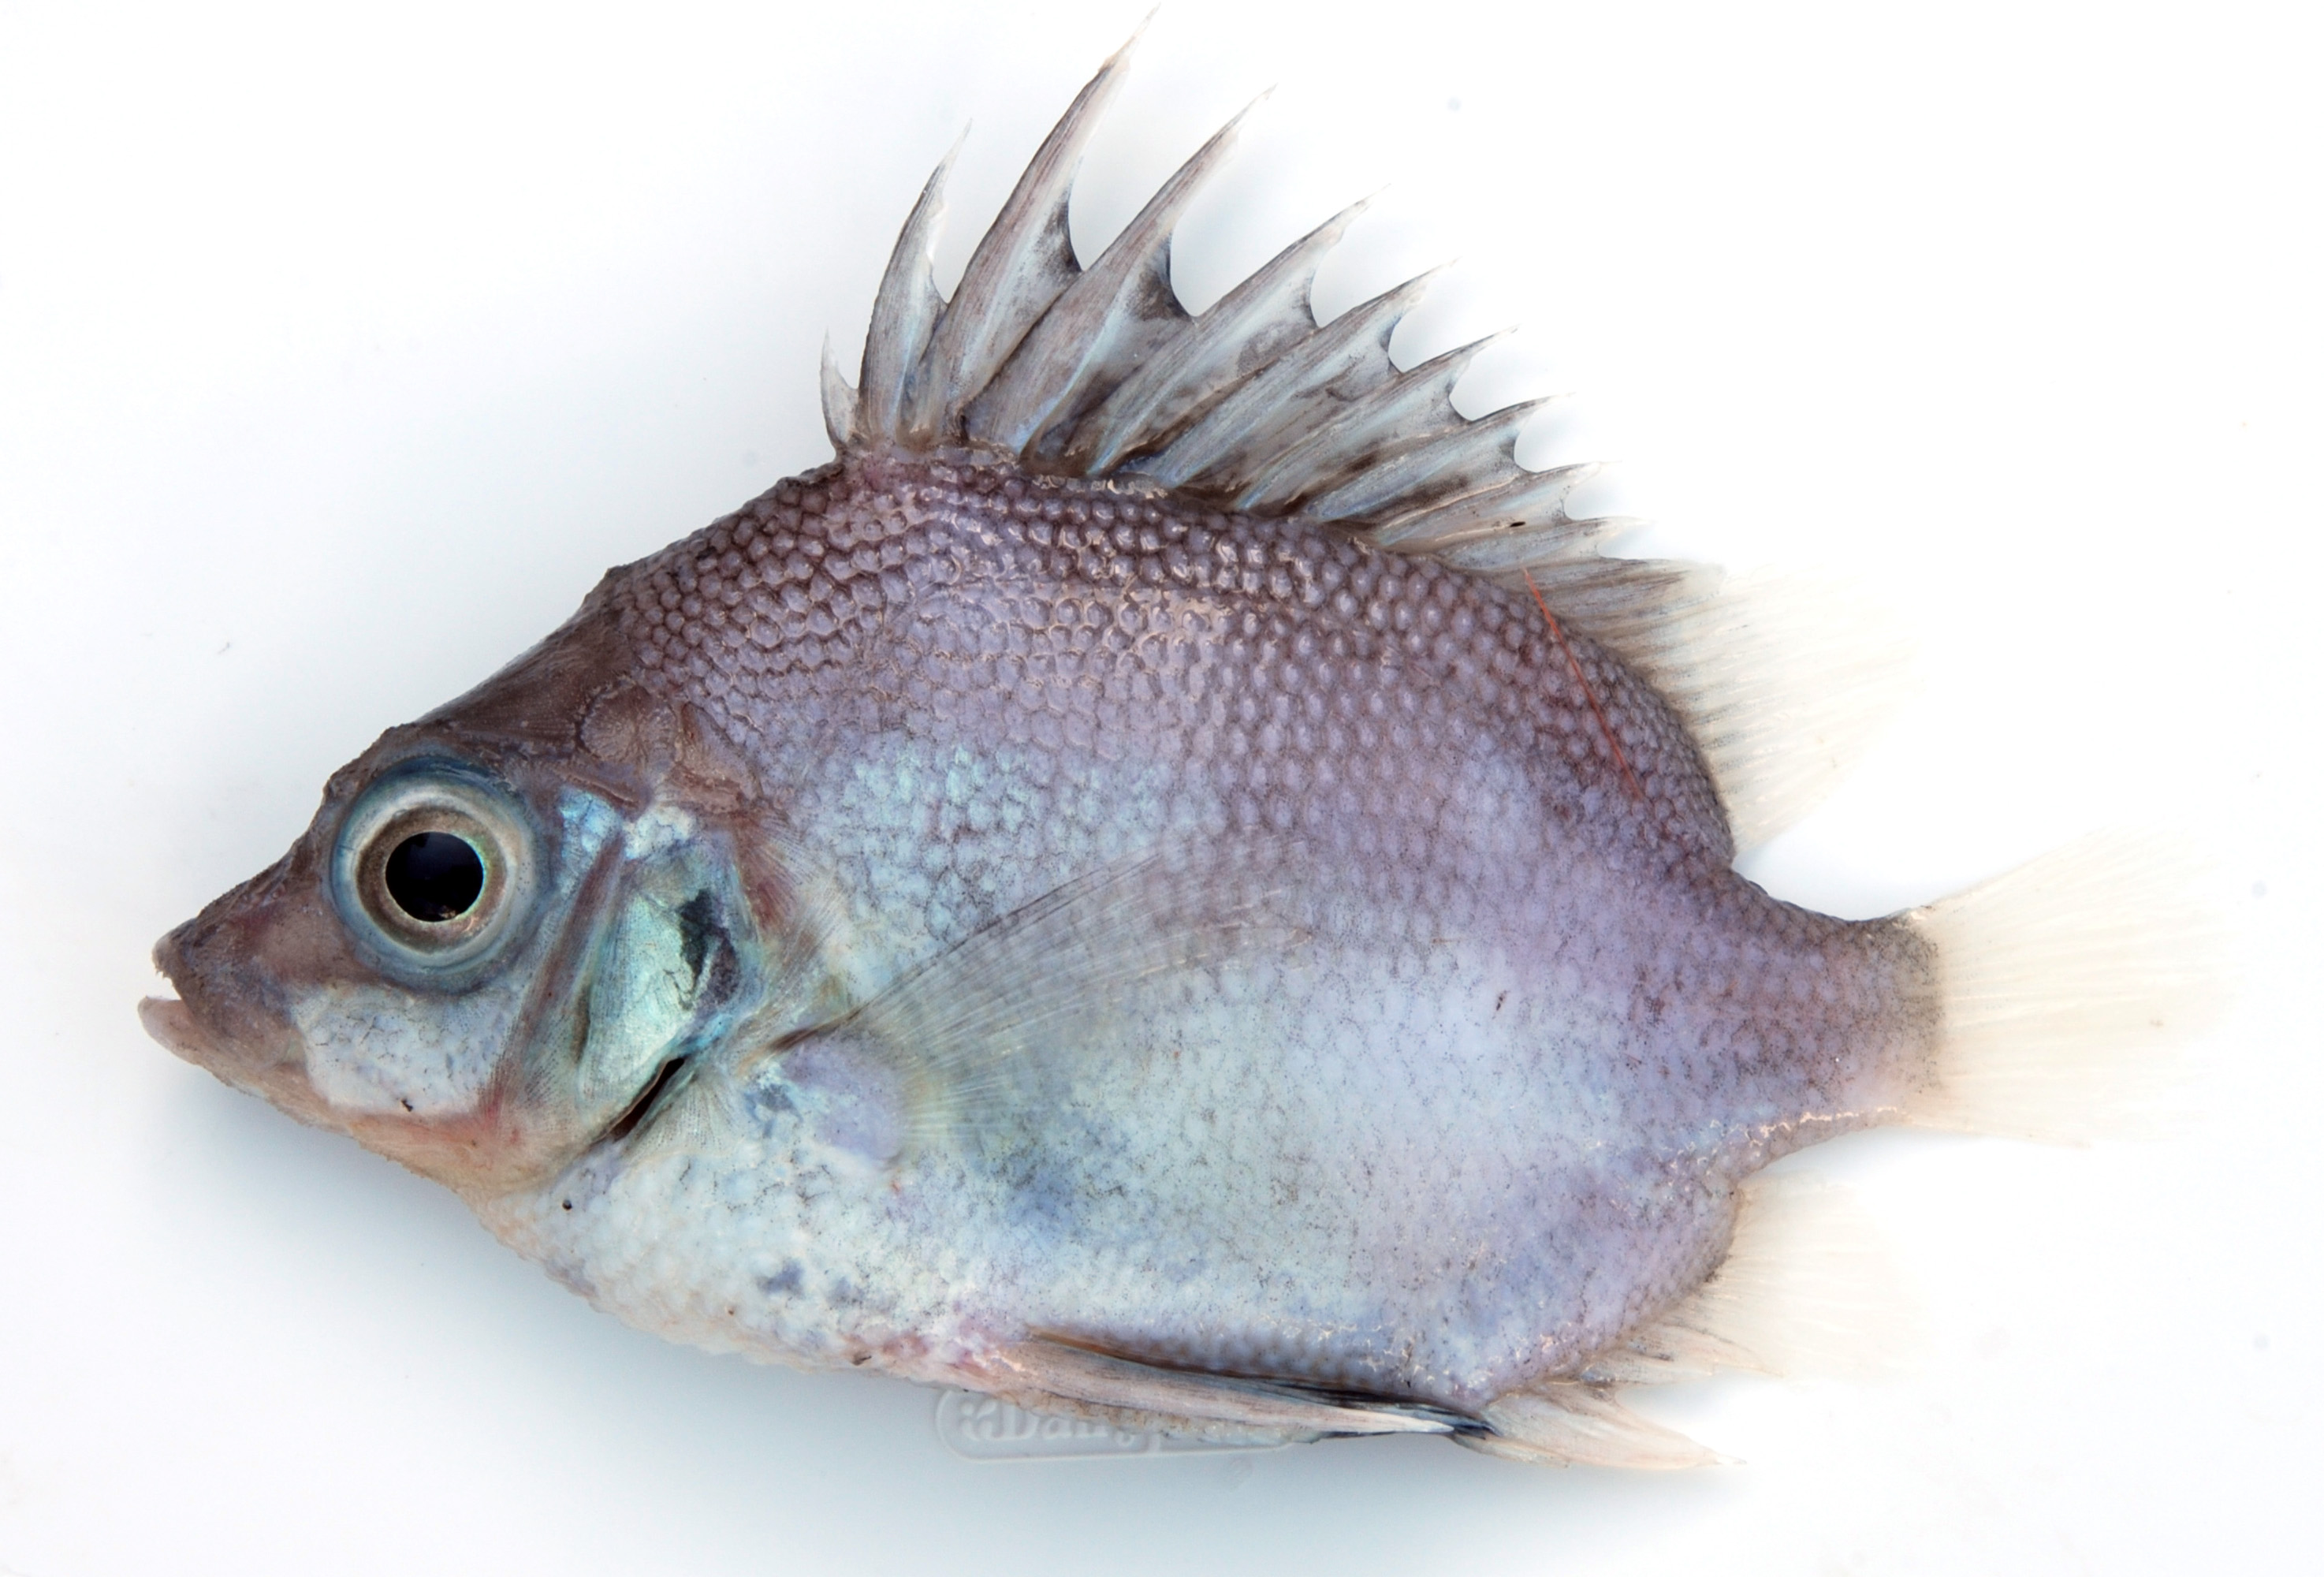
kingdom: Animalia
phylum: Chordata
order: Perciformes
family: Pentacerotidae
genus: Pentaceros
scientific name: Pentaceros capensis
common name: Cape armourhead
